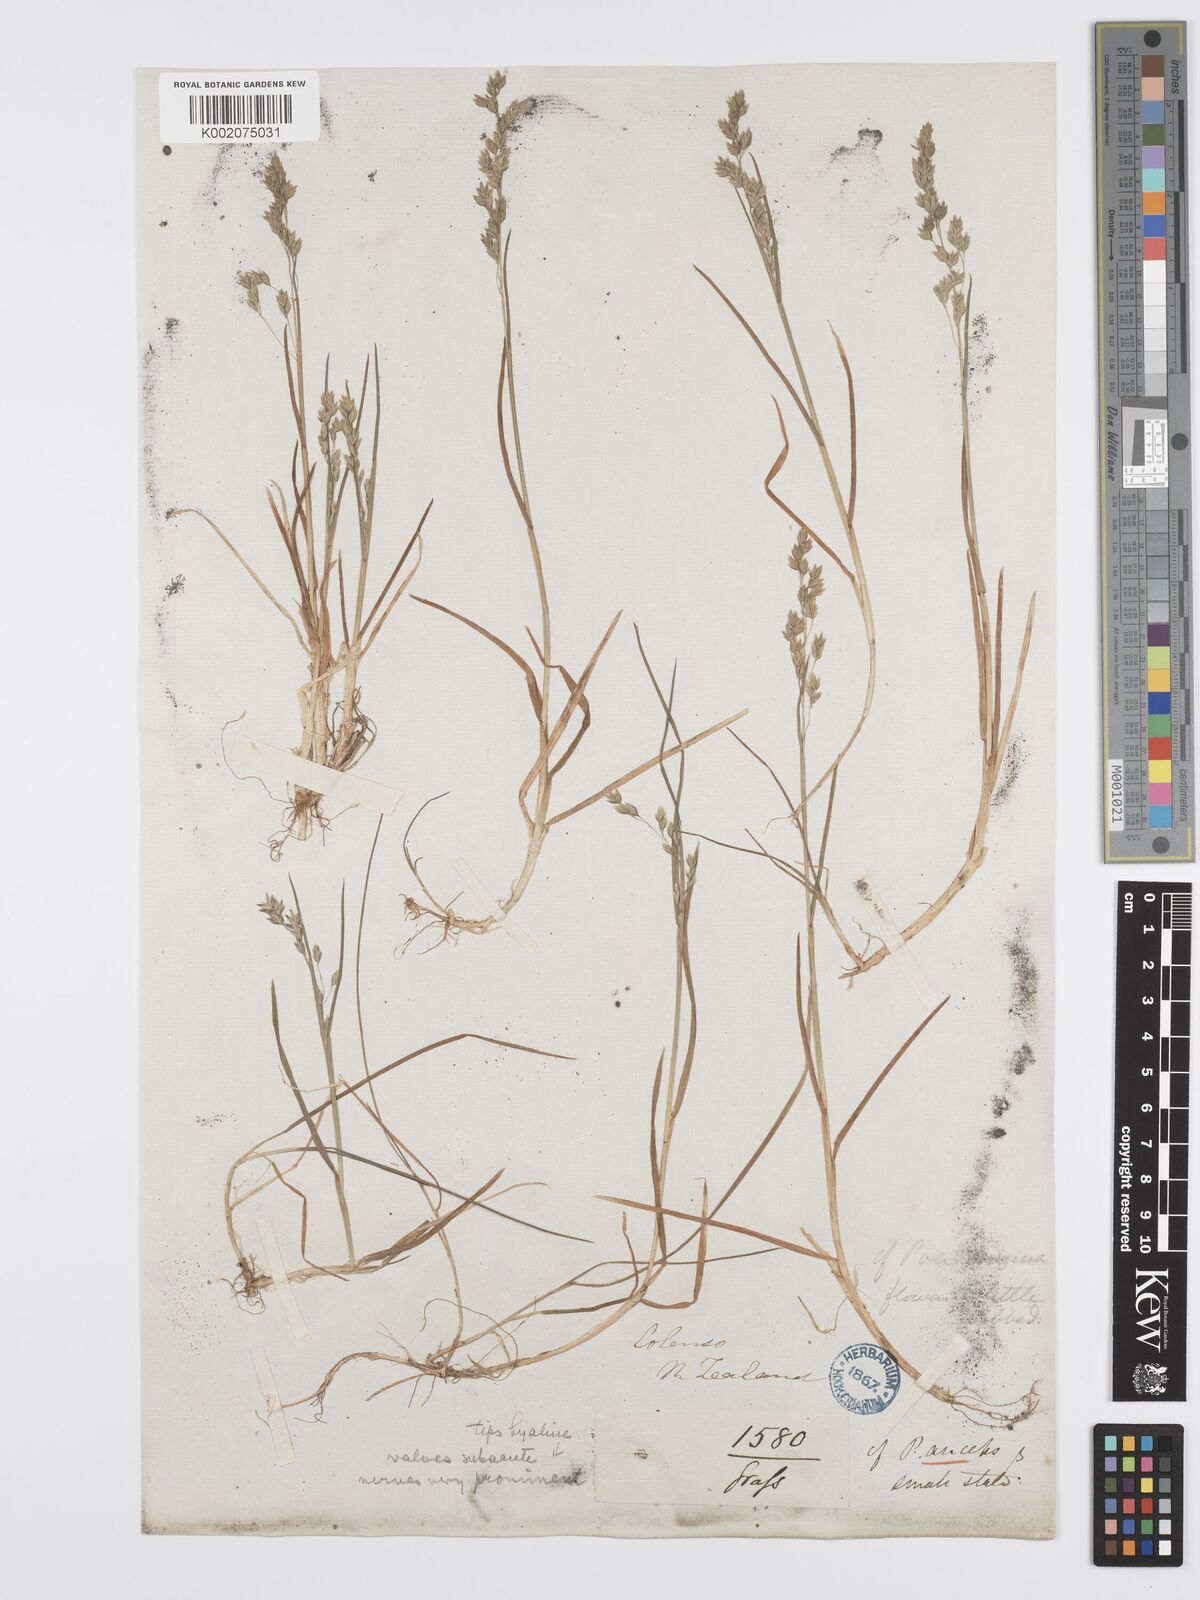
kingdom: Plantae
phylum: Tracheophyta
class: Liliopsida
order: Poales
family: Poaceae
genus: Poa
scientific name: Poa kirkii
